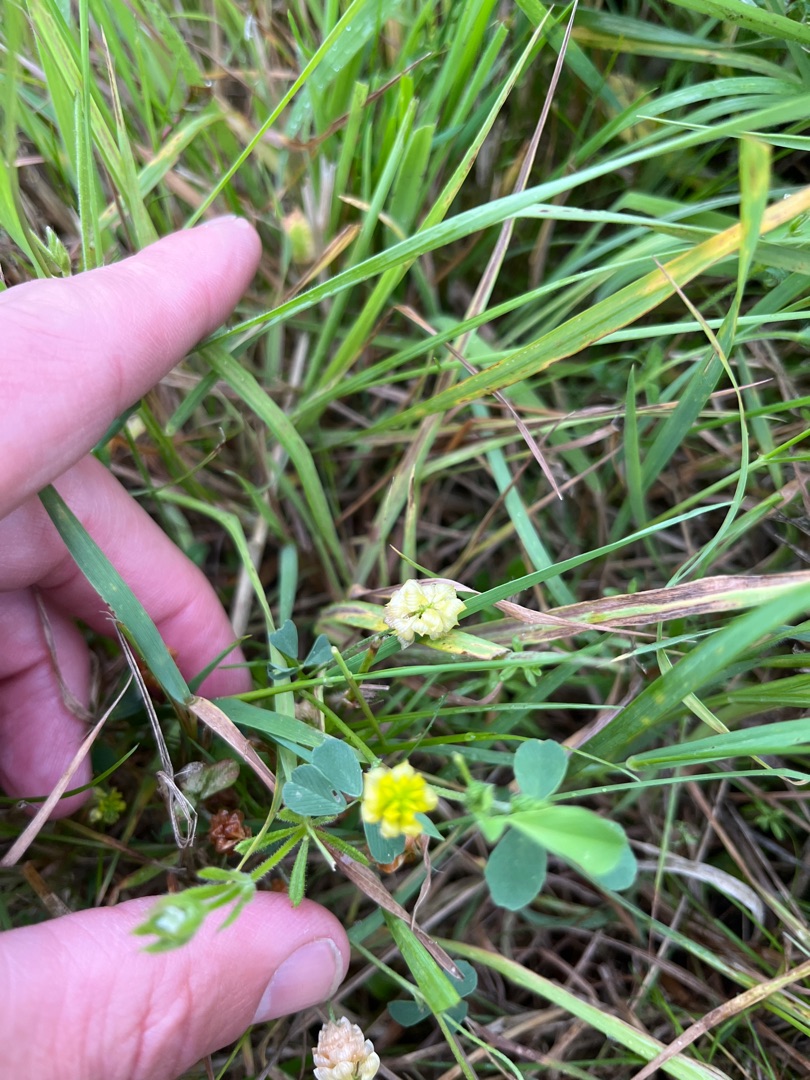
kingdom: Plantae
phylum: Tracheophyta
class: Magnoliopsida
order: Fabales
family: Fabaceae
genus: Trifolium
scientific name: Trifolium campestre
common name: Gul kløver
